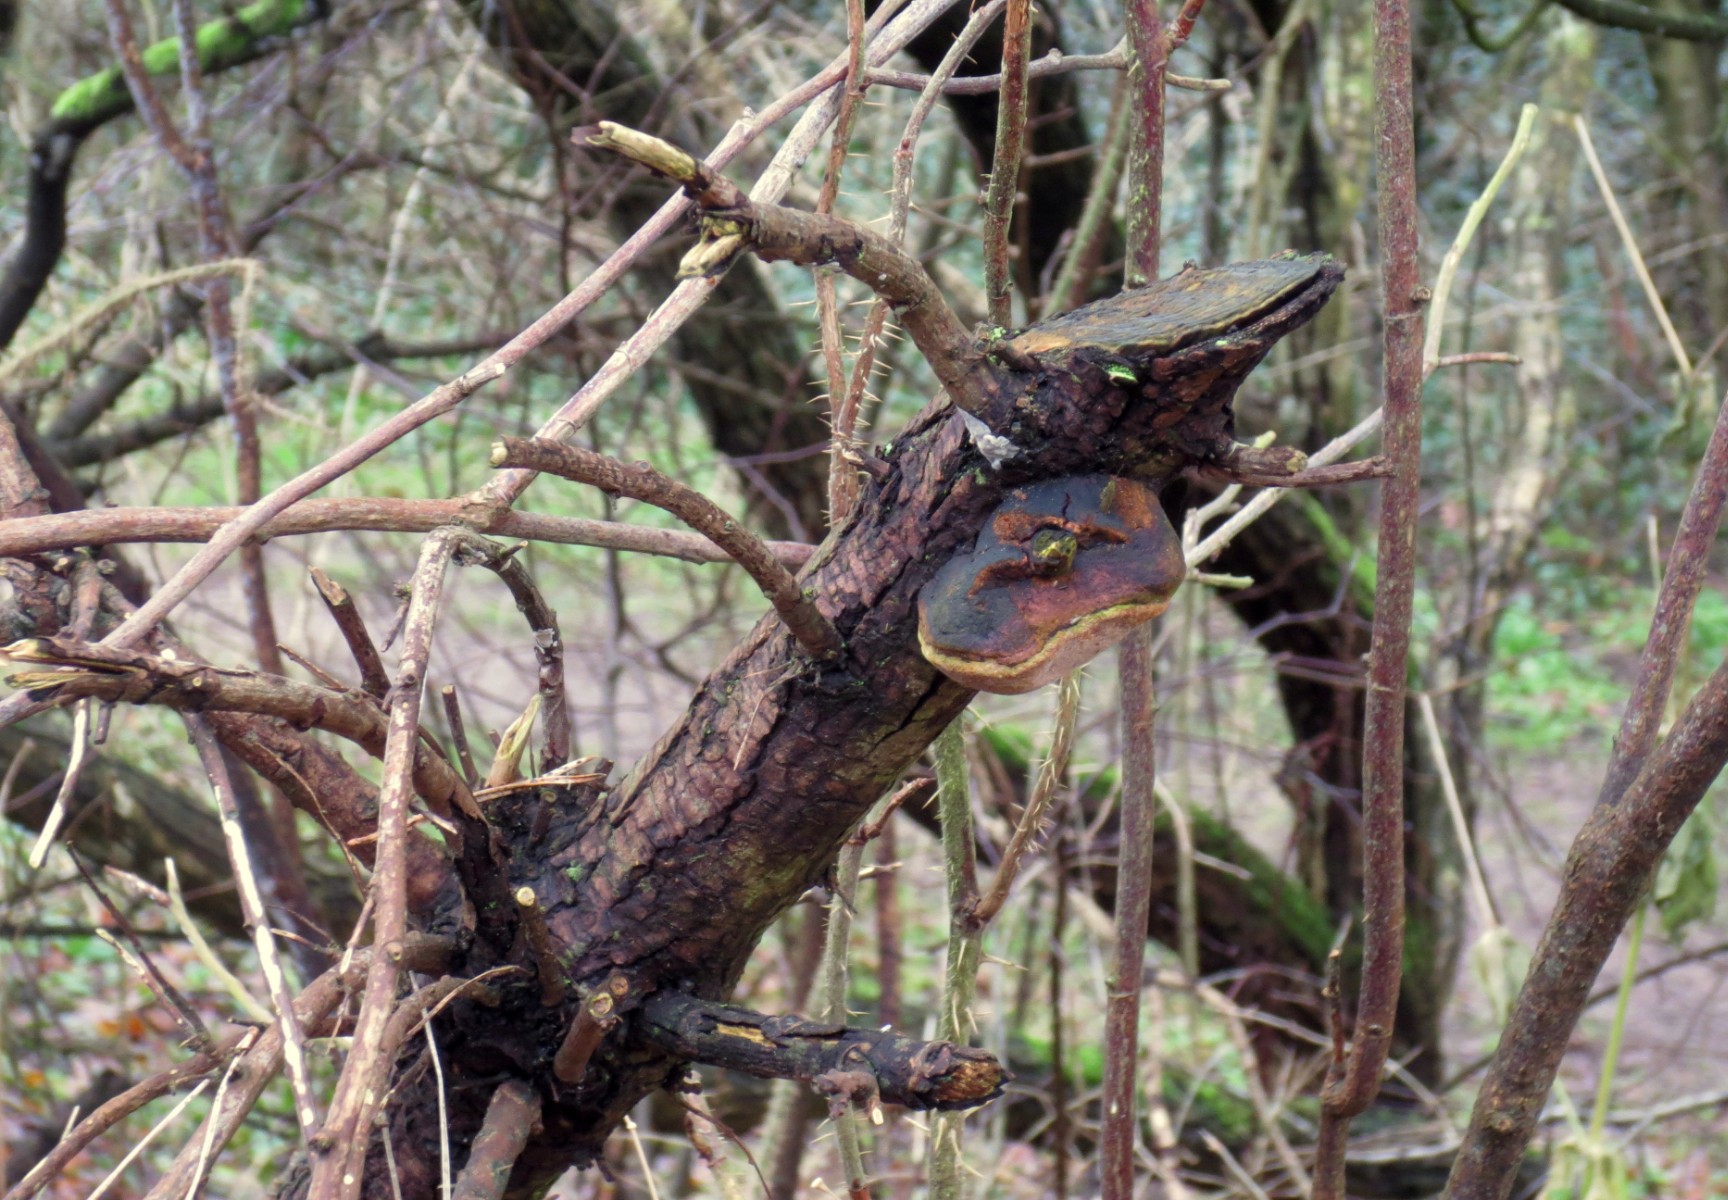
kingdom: Fungi
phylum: Basidiomycota
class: Agaricomycetes
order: Hymenochaetales
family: Hymenochaetaceae
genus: Fomitiporia
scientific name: Fomitiporia hippophaeicola
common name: havtorn-ildporesvamp
